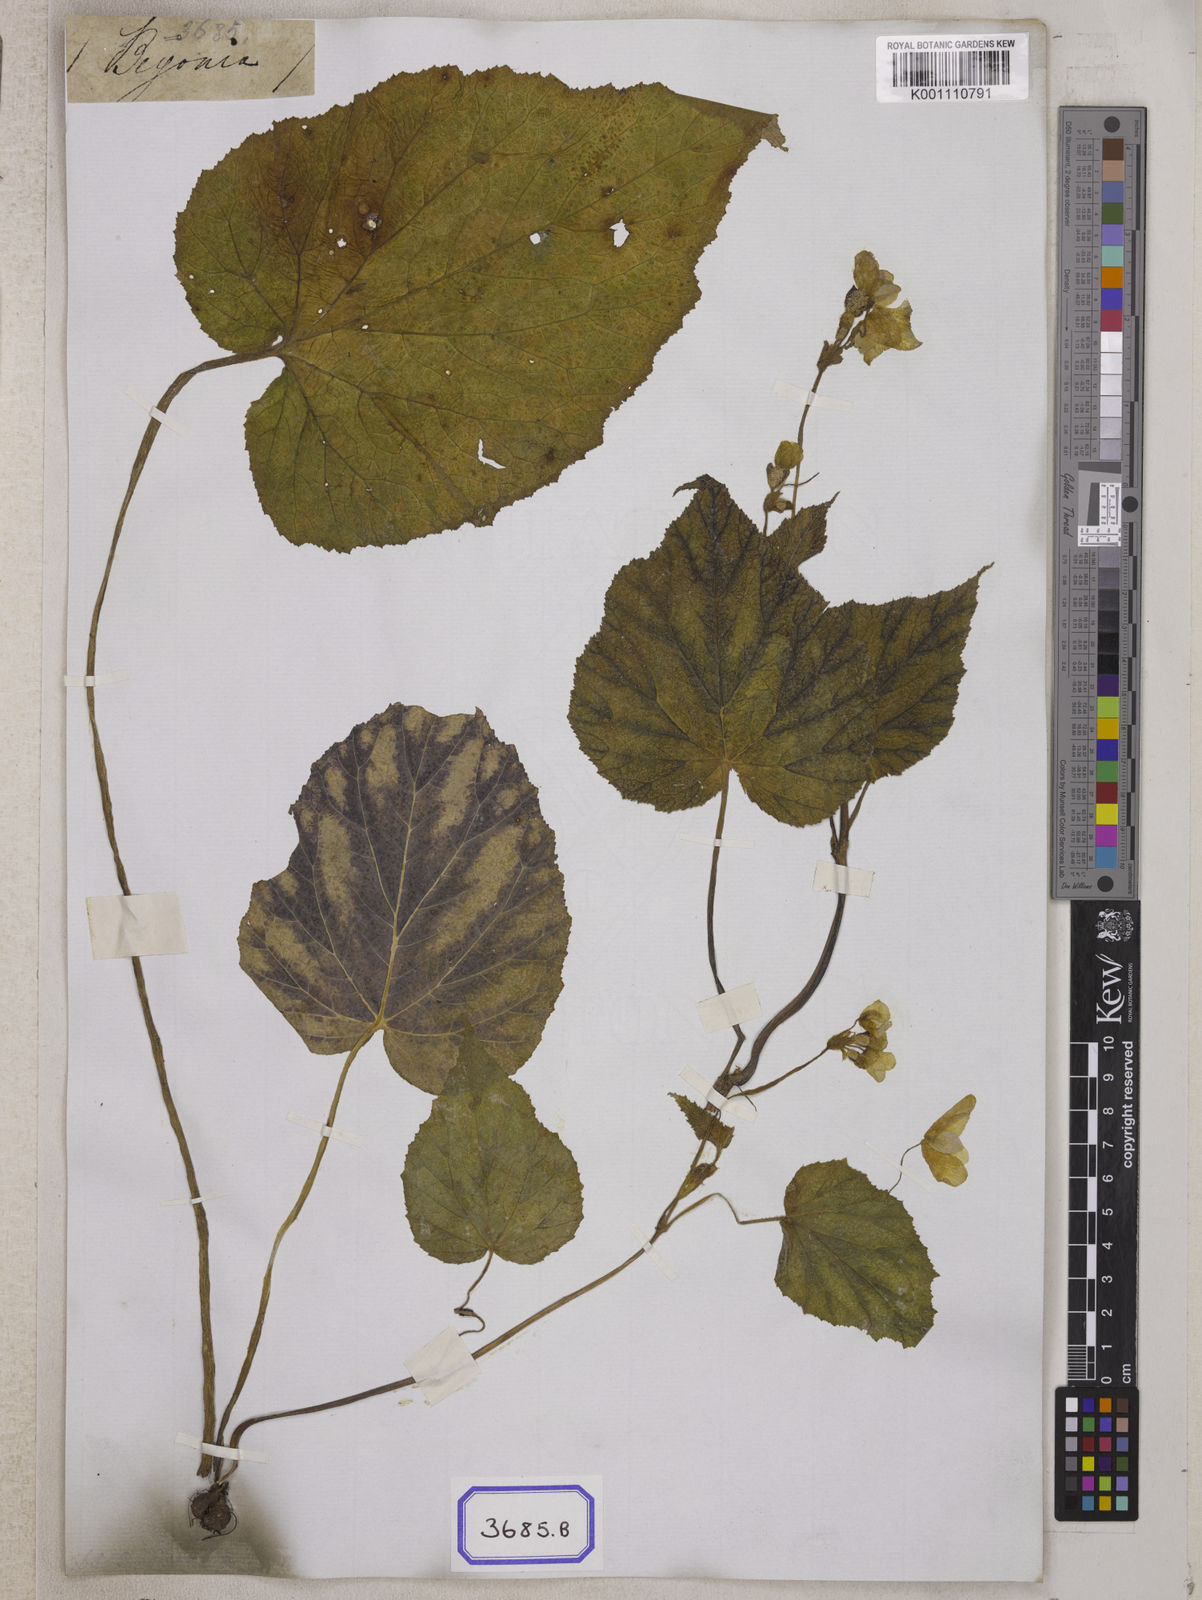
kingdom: Plantae
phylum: Tracheophyta
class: Magnoliopsida
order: Cucurbitales
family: Begoniaceae
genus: Begonia
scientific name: Begonia picta
